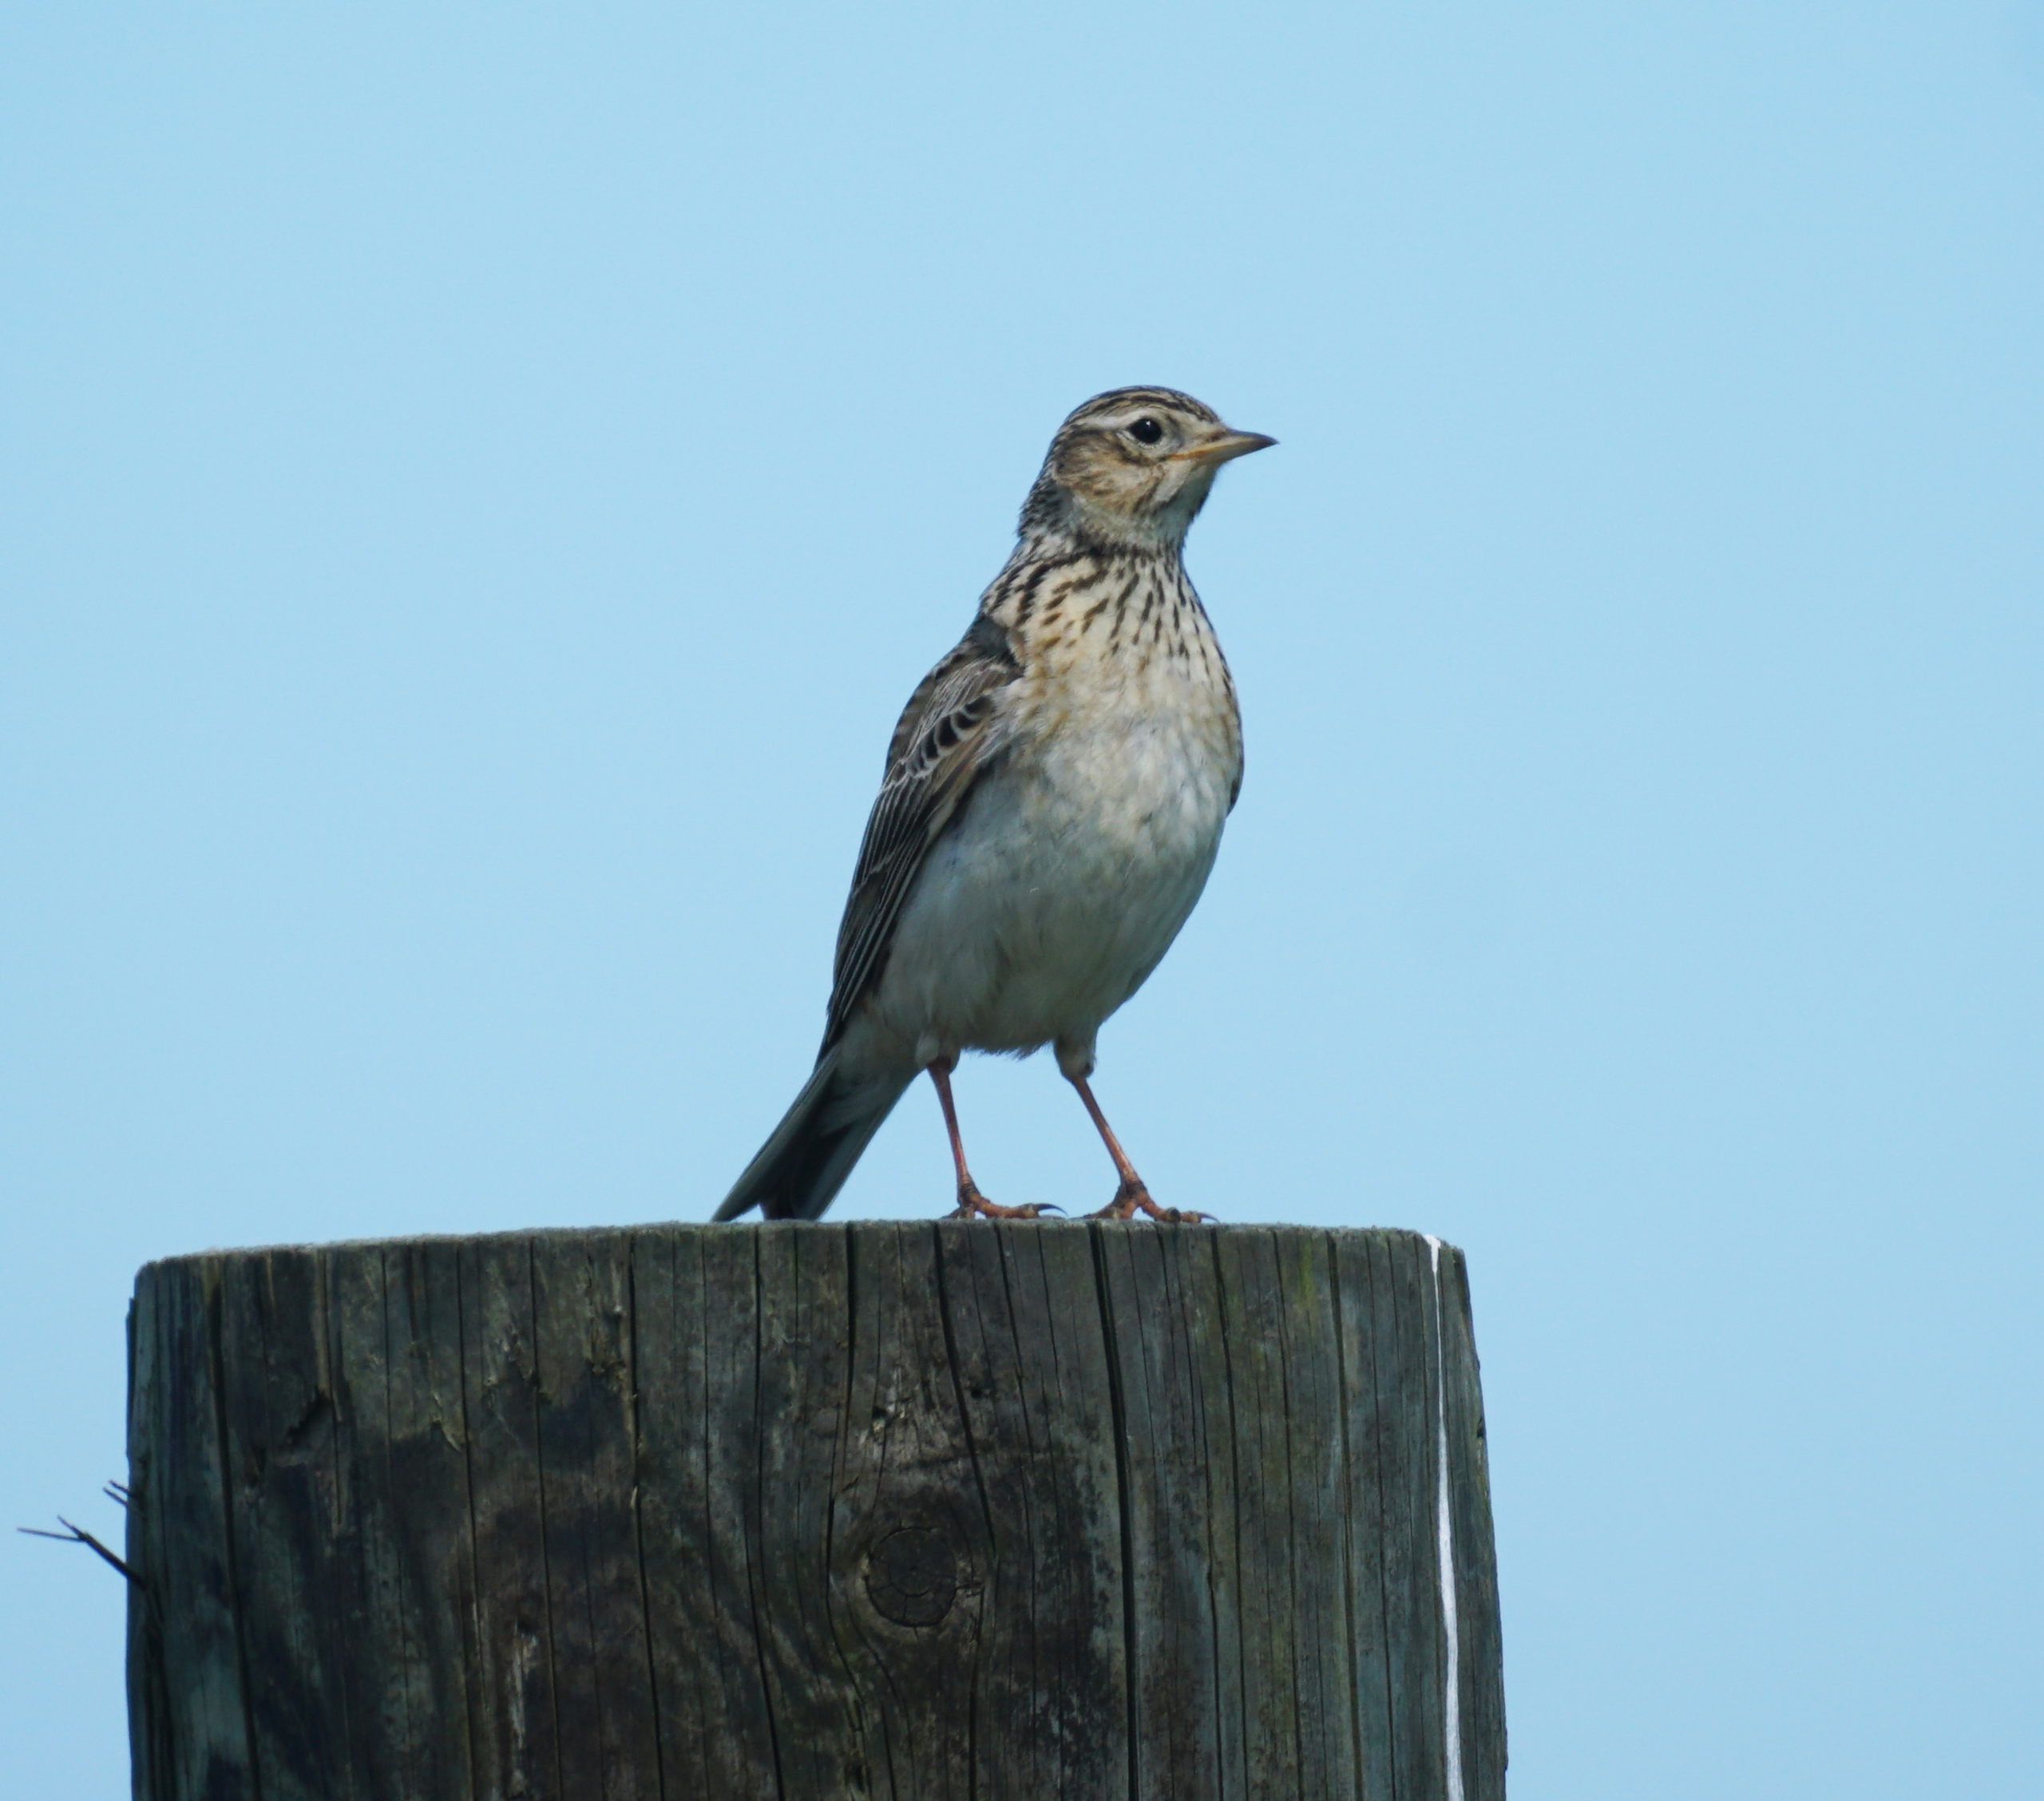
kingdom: Animalia
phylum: Chordata
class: Aves
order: Passeriformes
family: Alaudidae
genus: Alauda
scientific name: Alauda arvensis
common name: Sanglærke
